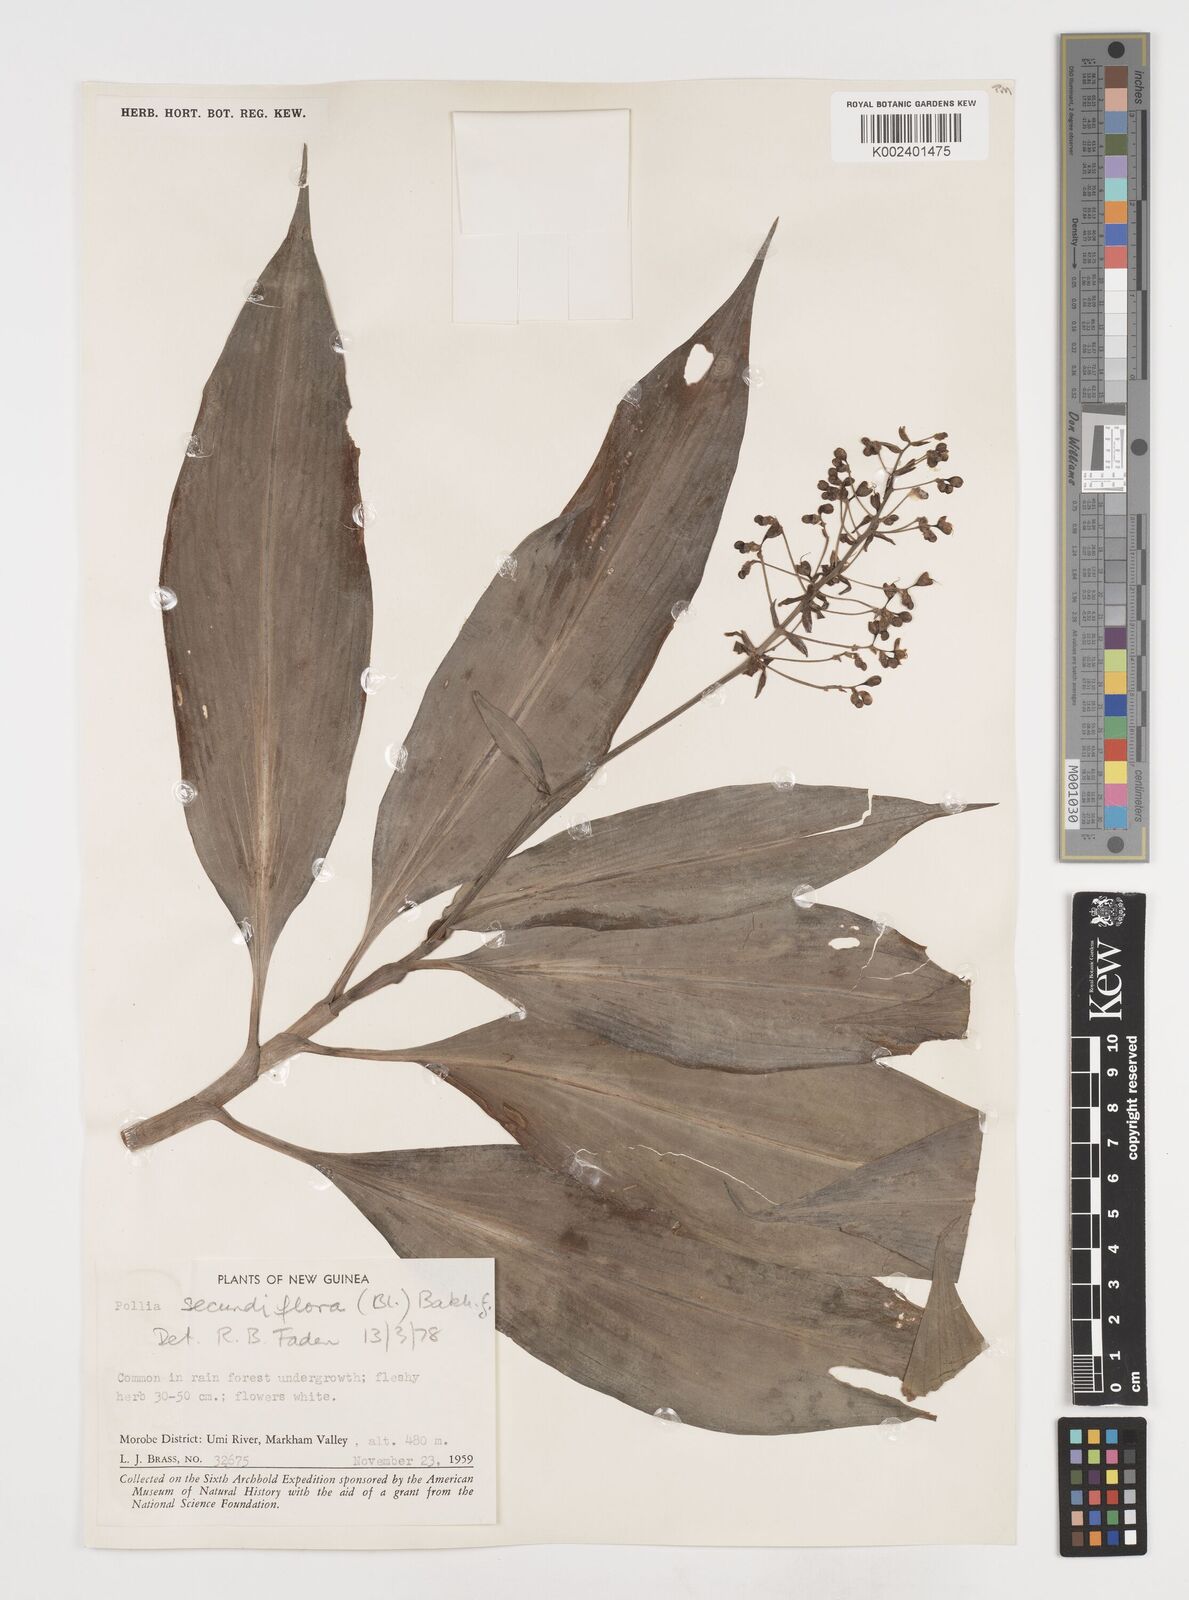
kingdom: Plantae
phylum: Tracheophyta
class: Liliopsida
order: Commelinales
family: Commelinaceae
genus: Pollia
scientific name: Pollia secundiflora
